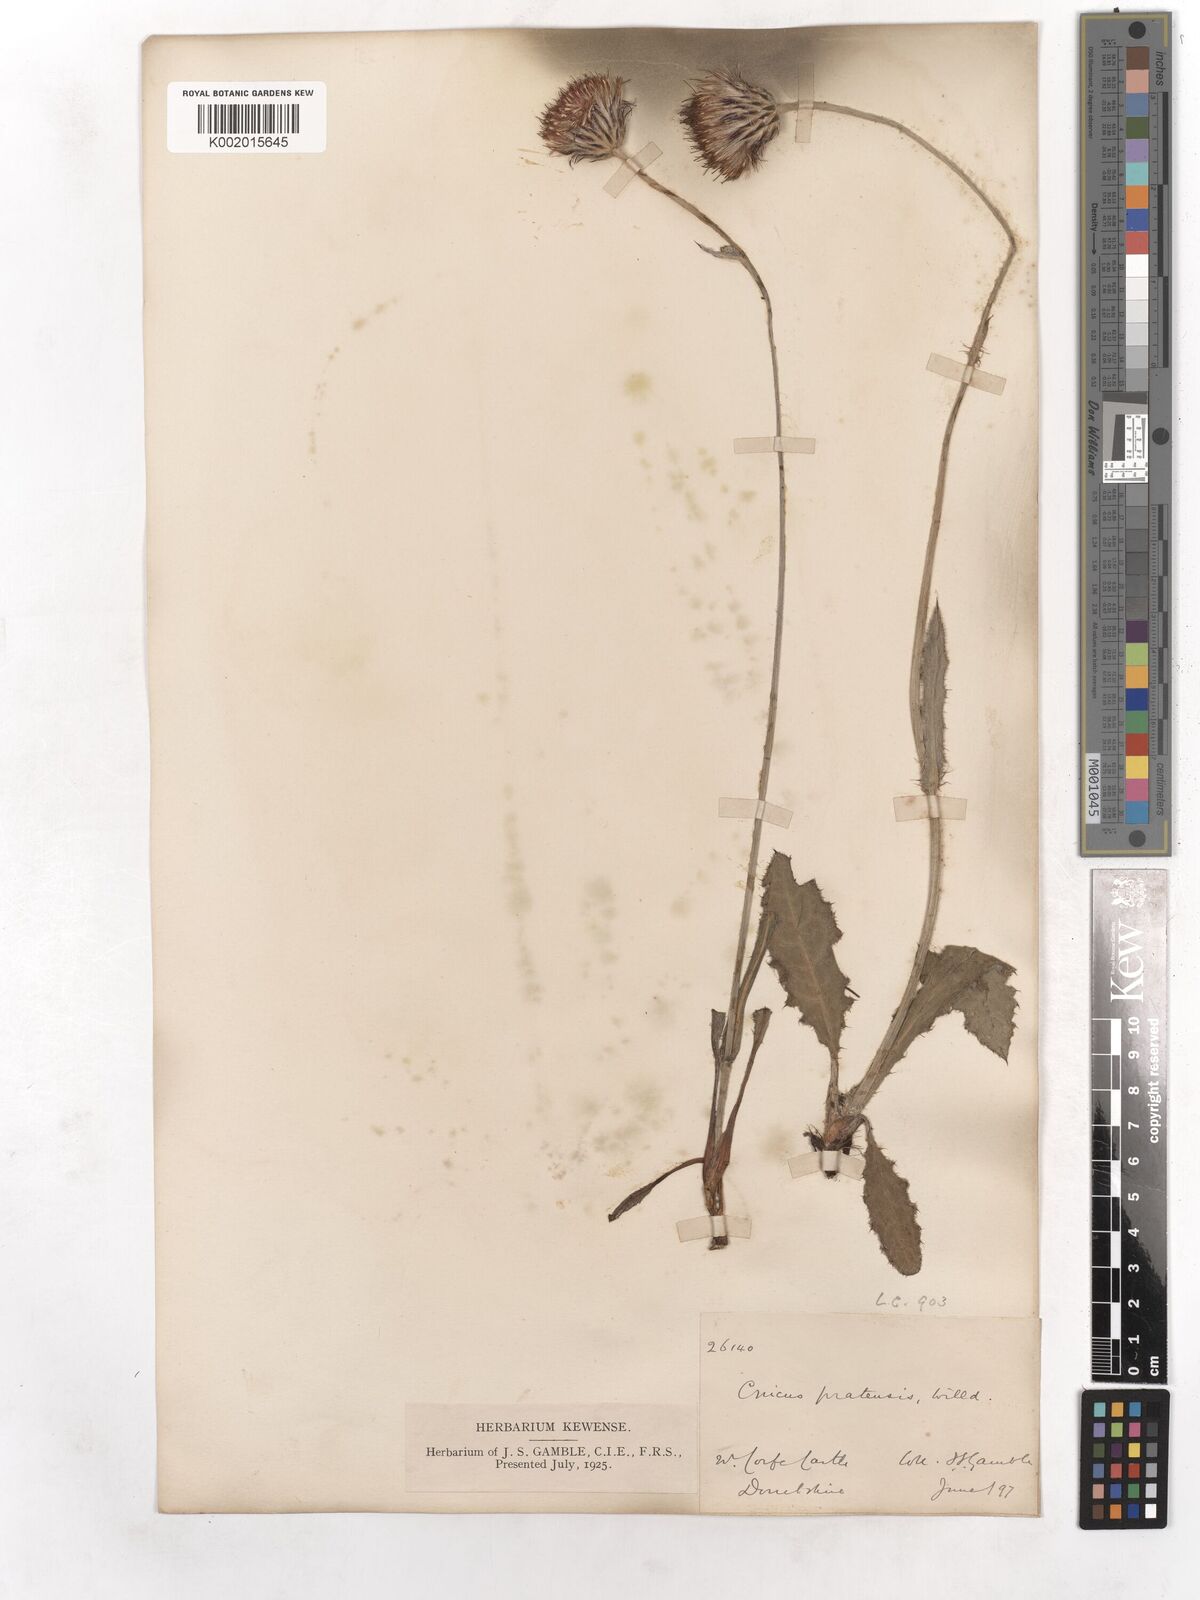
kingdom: Plantae
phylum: Tracheophyta
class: Magnoliopsida
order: Asterales
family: Asteraceae
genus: Cirsium
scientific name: Cirsium
